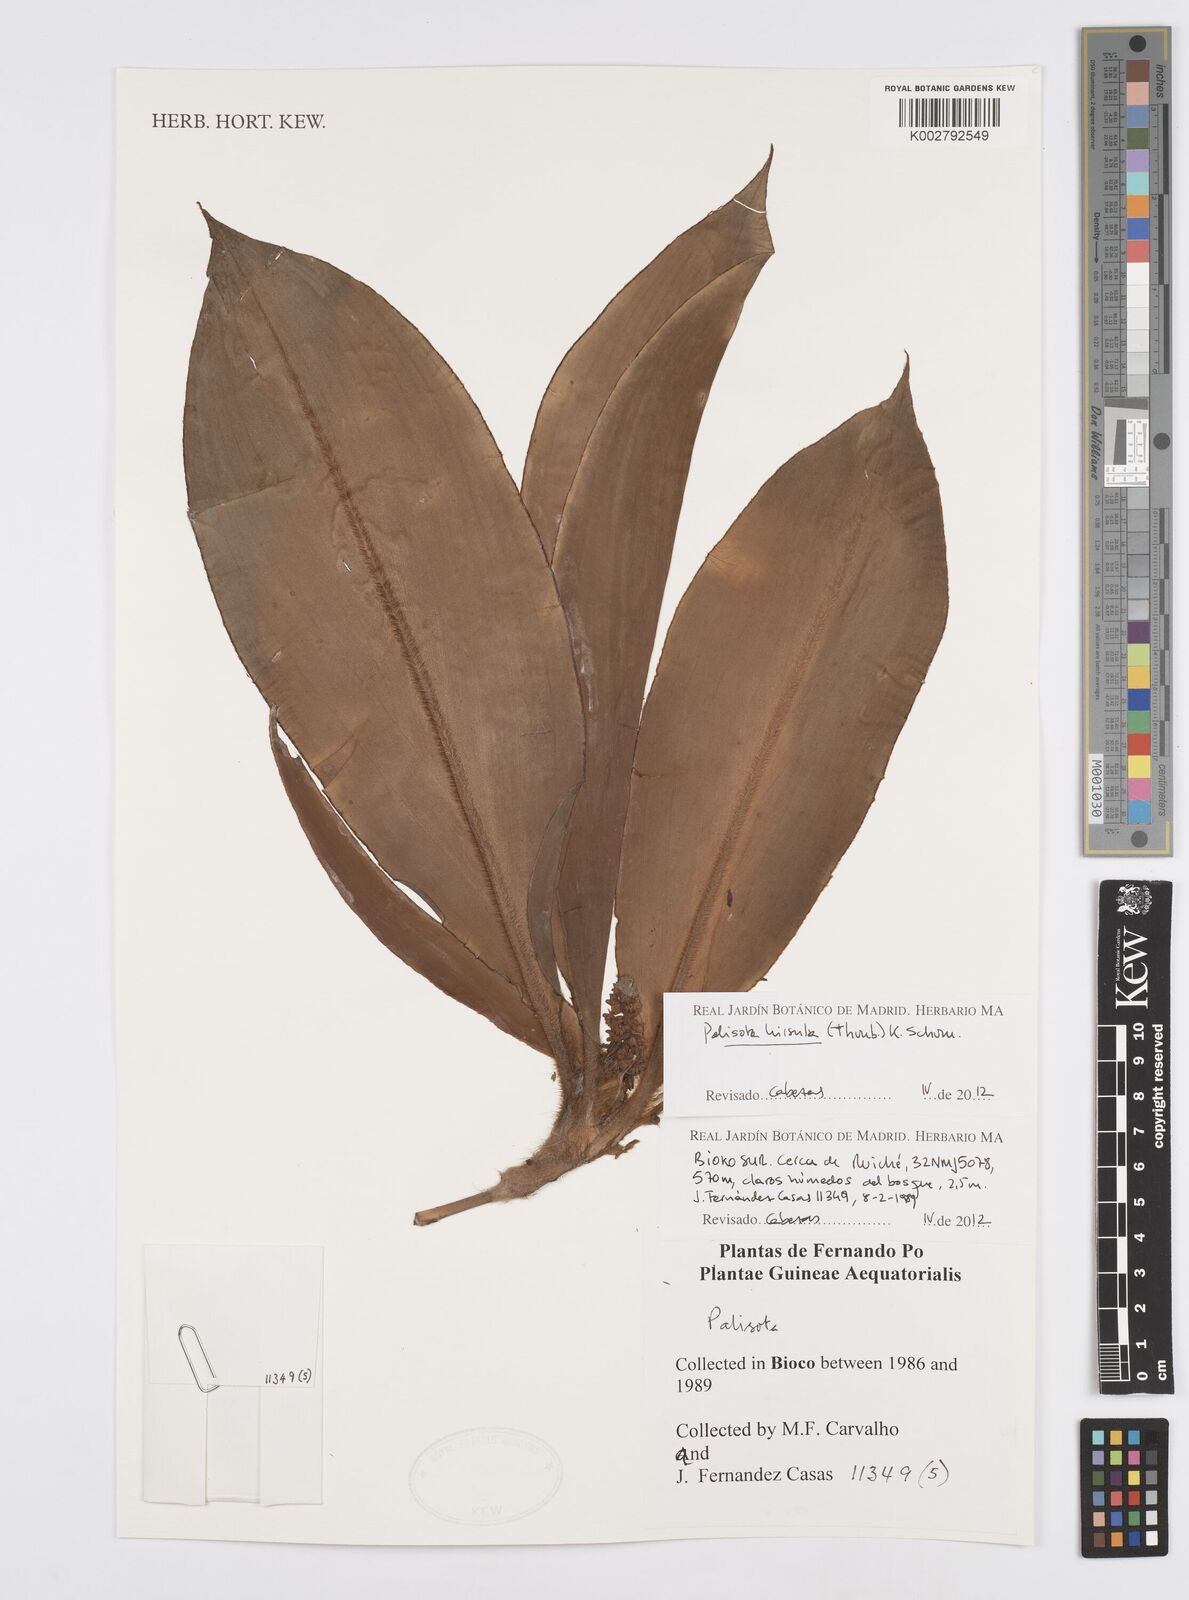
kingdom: Plantae
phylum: Tracheophyta
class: Liliopsida
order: Commelinales
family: Commelinaceae
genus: Palisota
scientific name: Palisota hirsuta
